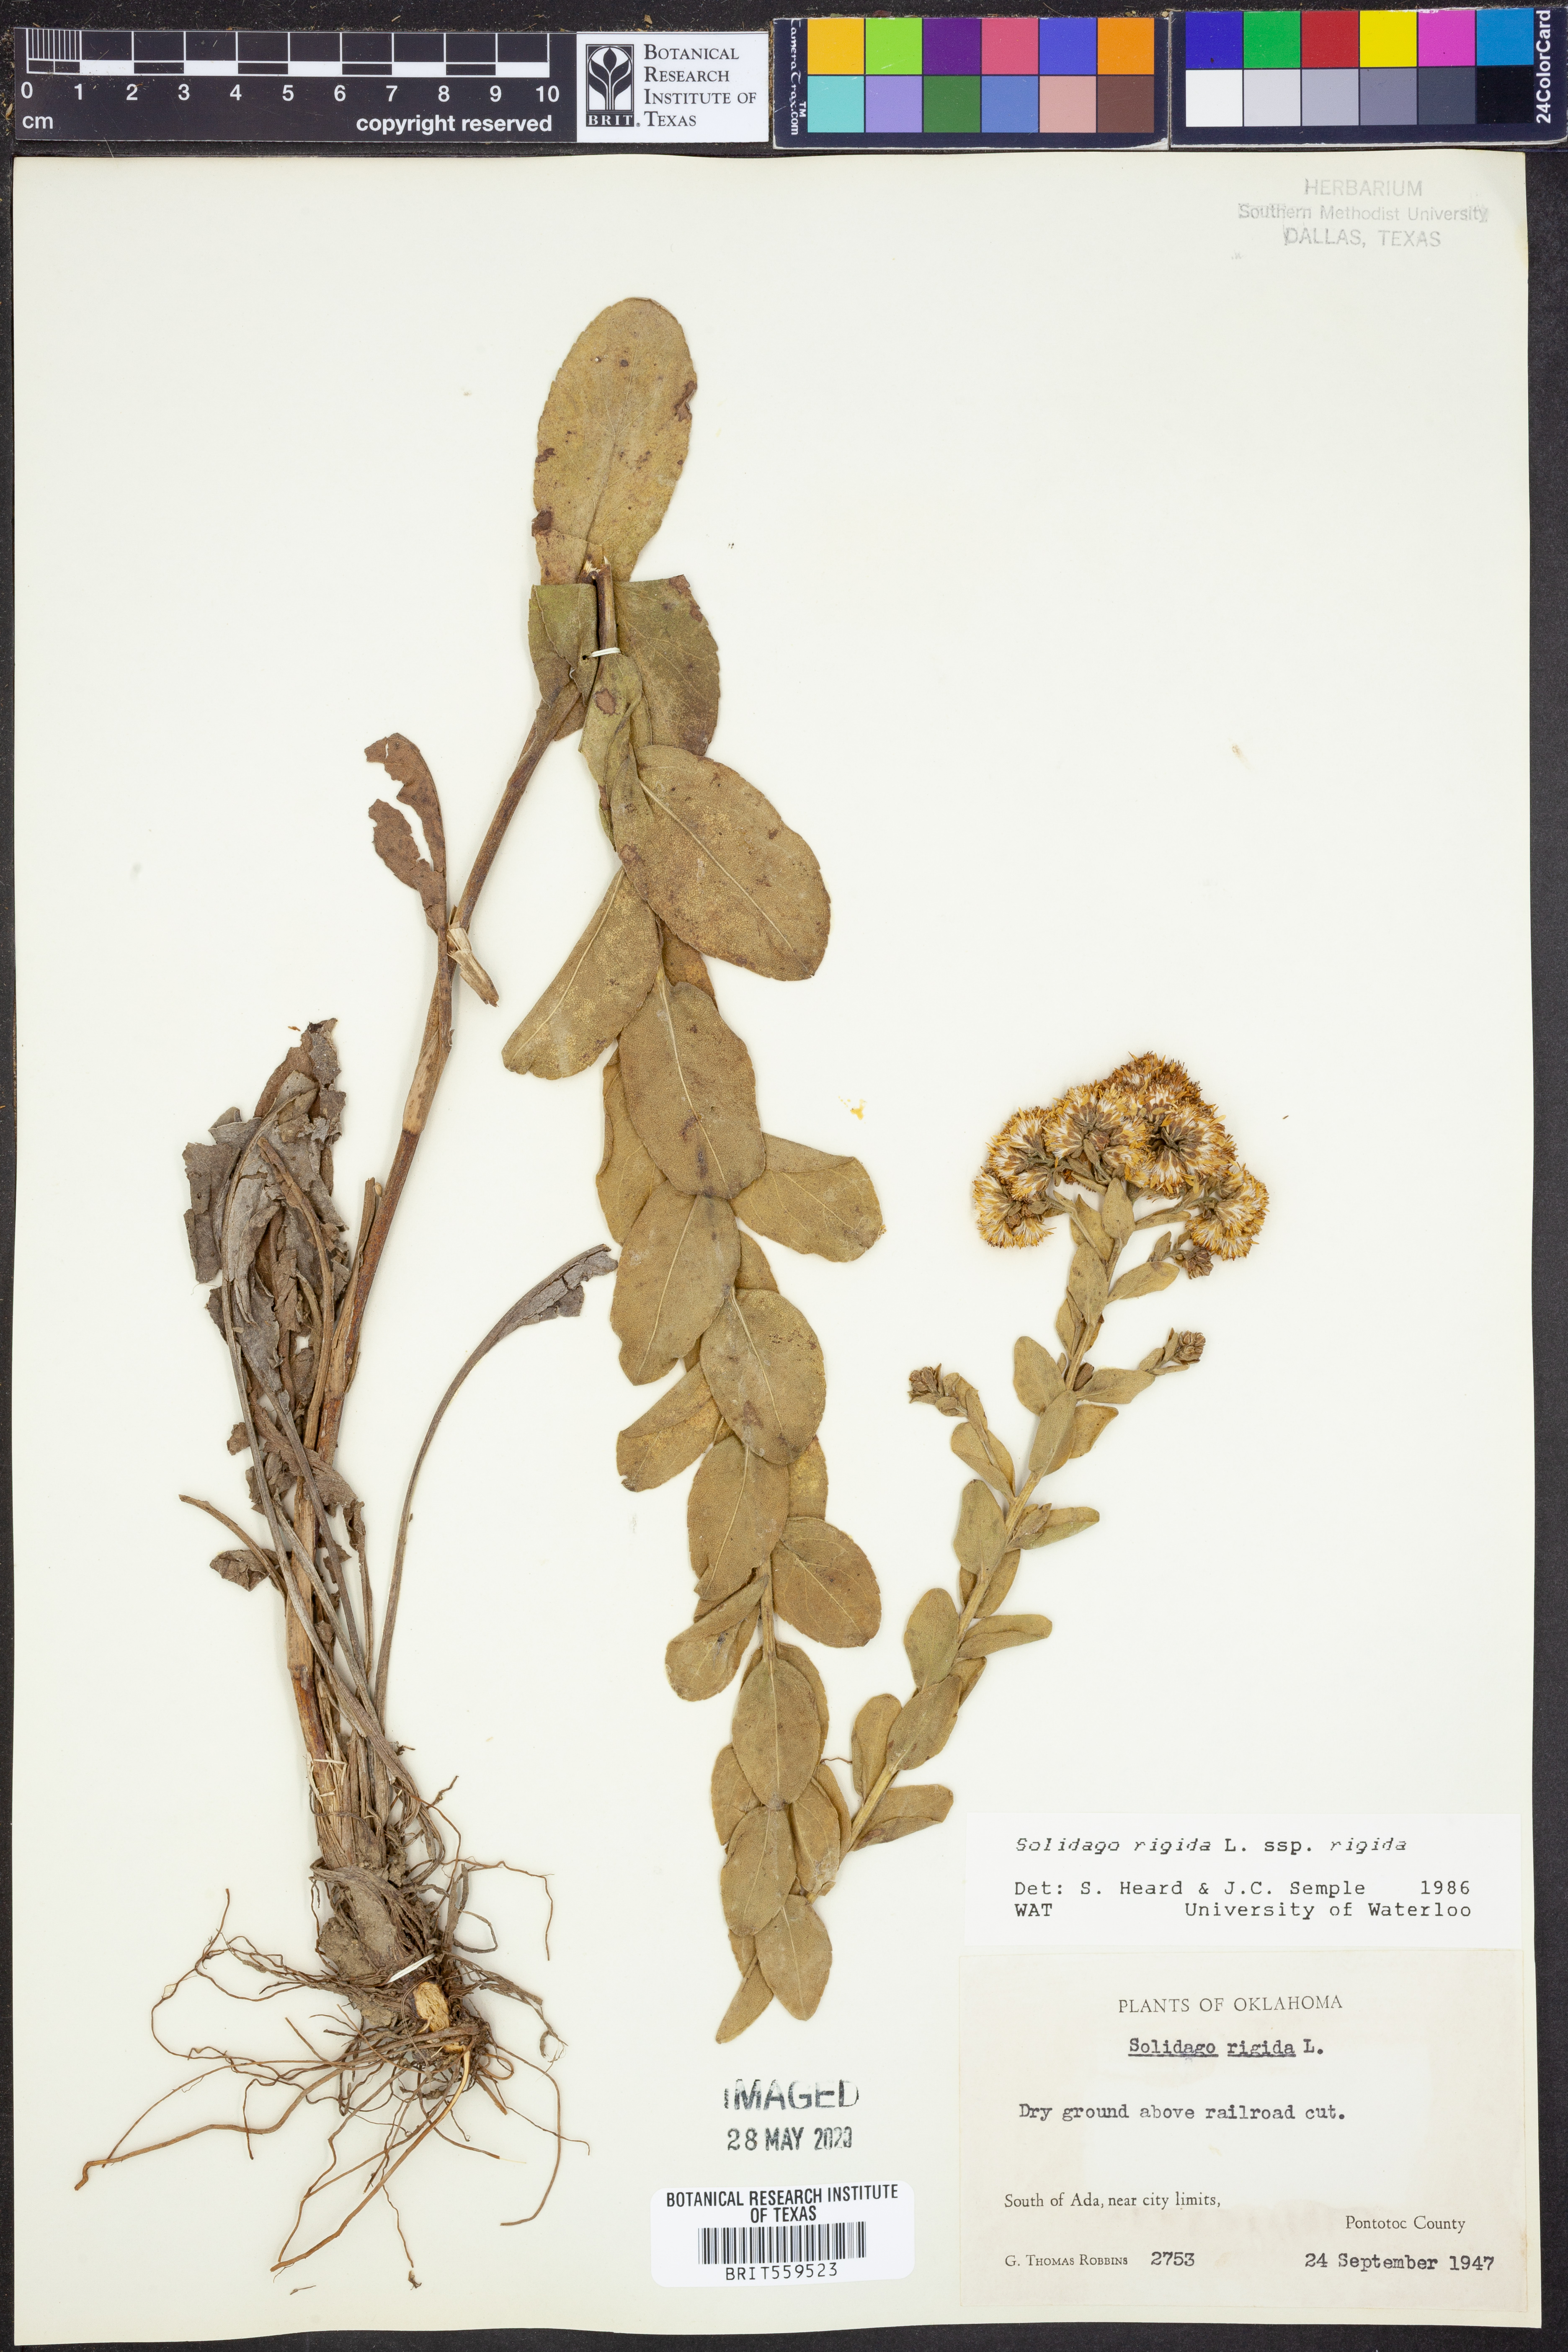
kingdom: Plantae
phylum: Tracheophyta
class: Magnoliopsida
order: Asterales
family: Asteraceae
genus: Solidago
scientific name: Solidago rigida
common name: Rigid goldenrod
